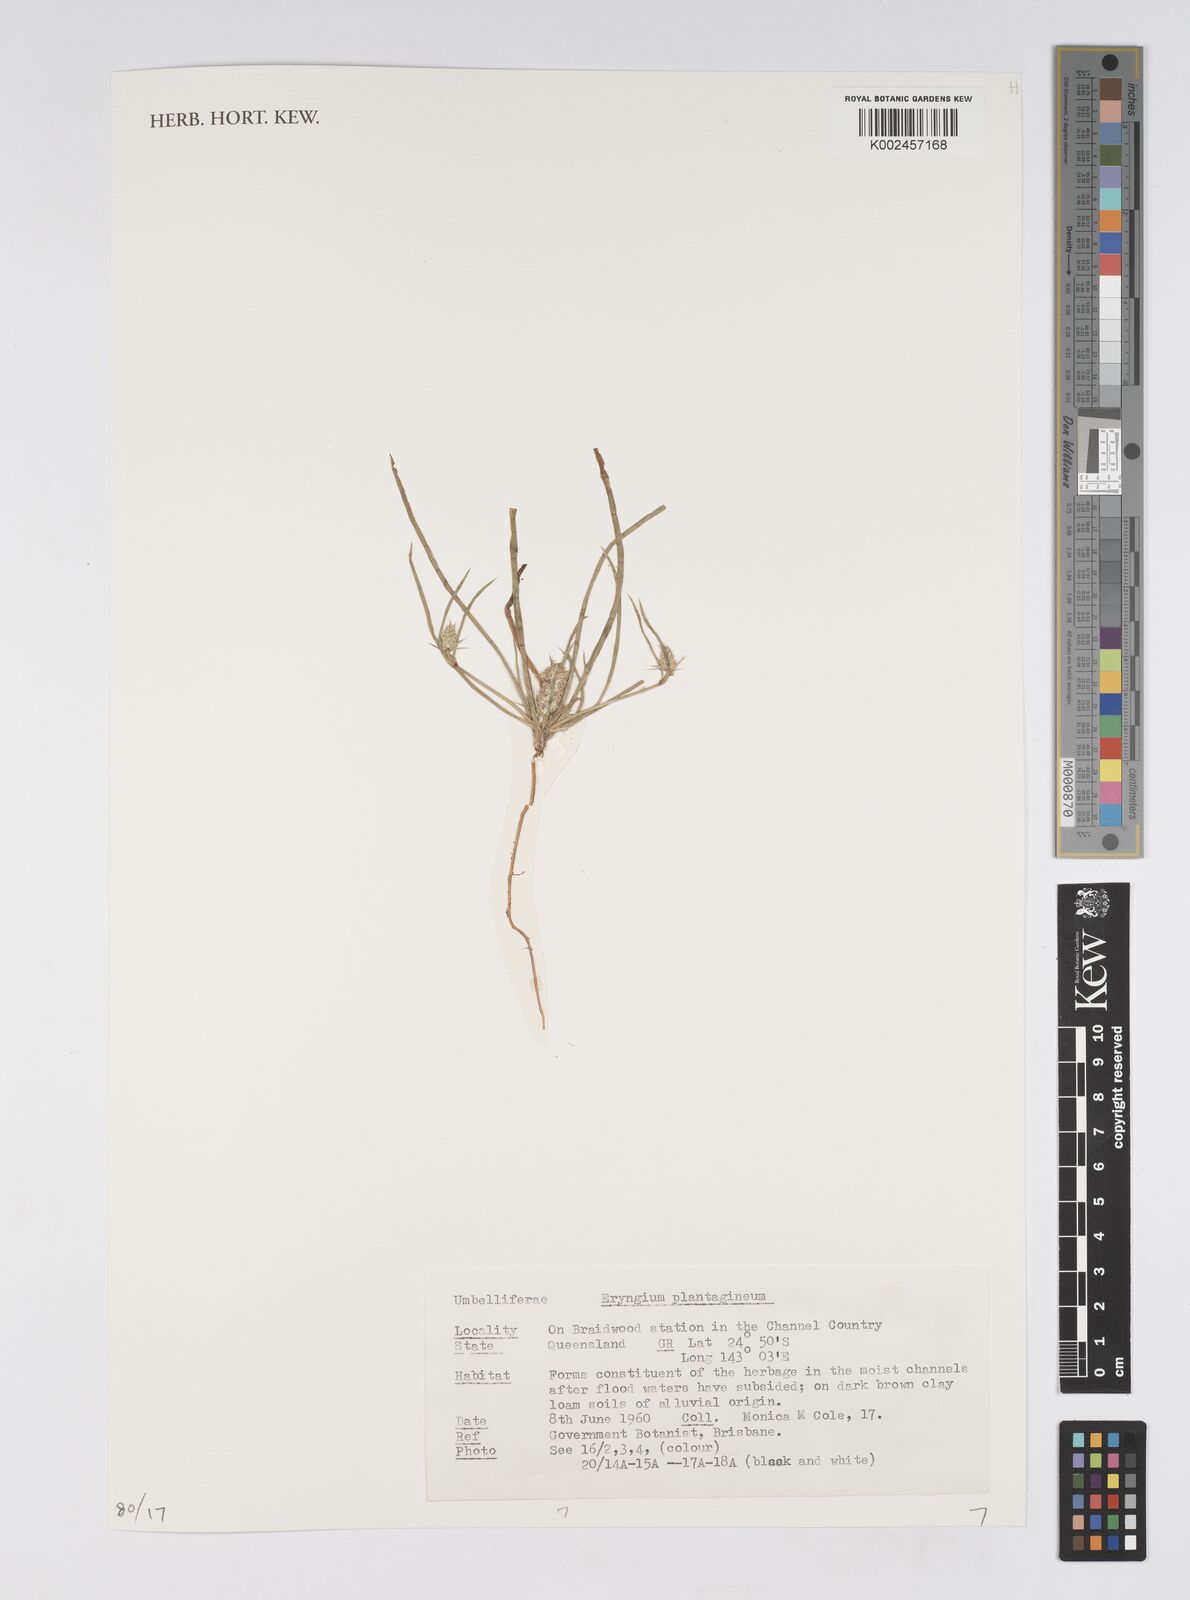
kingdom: Plantae
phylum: Tracheophyta
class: Magnoliopsida
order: Apiales
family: Apiaceae
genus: Eryngium
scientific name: Eryngium plantagineum
